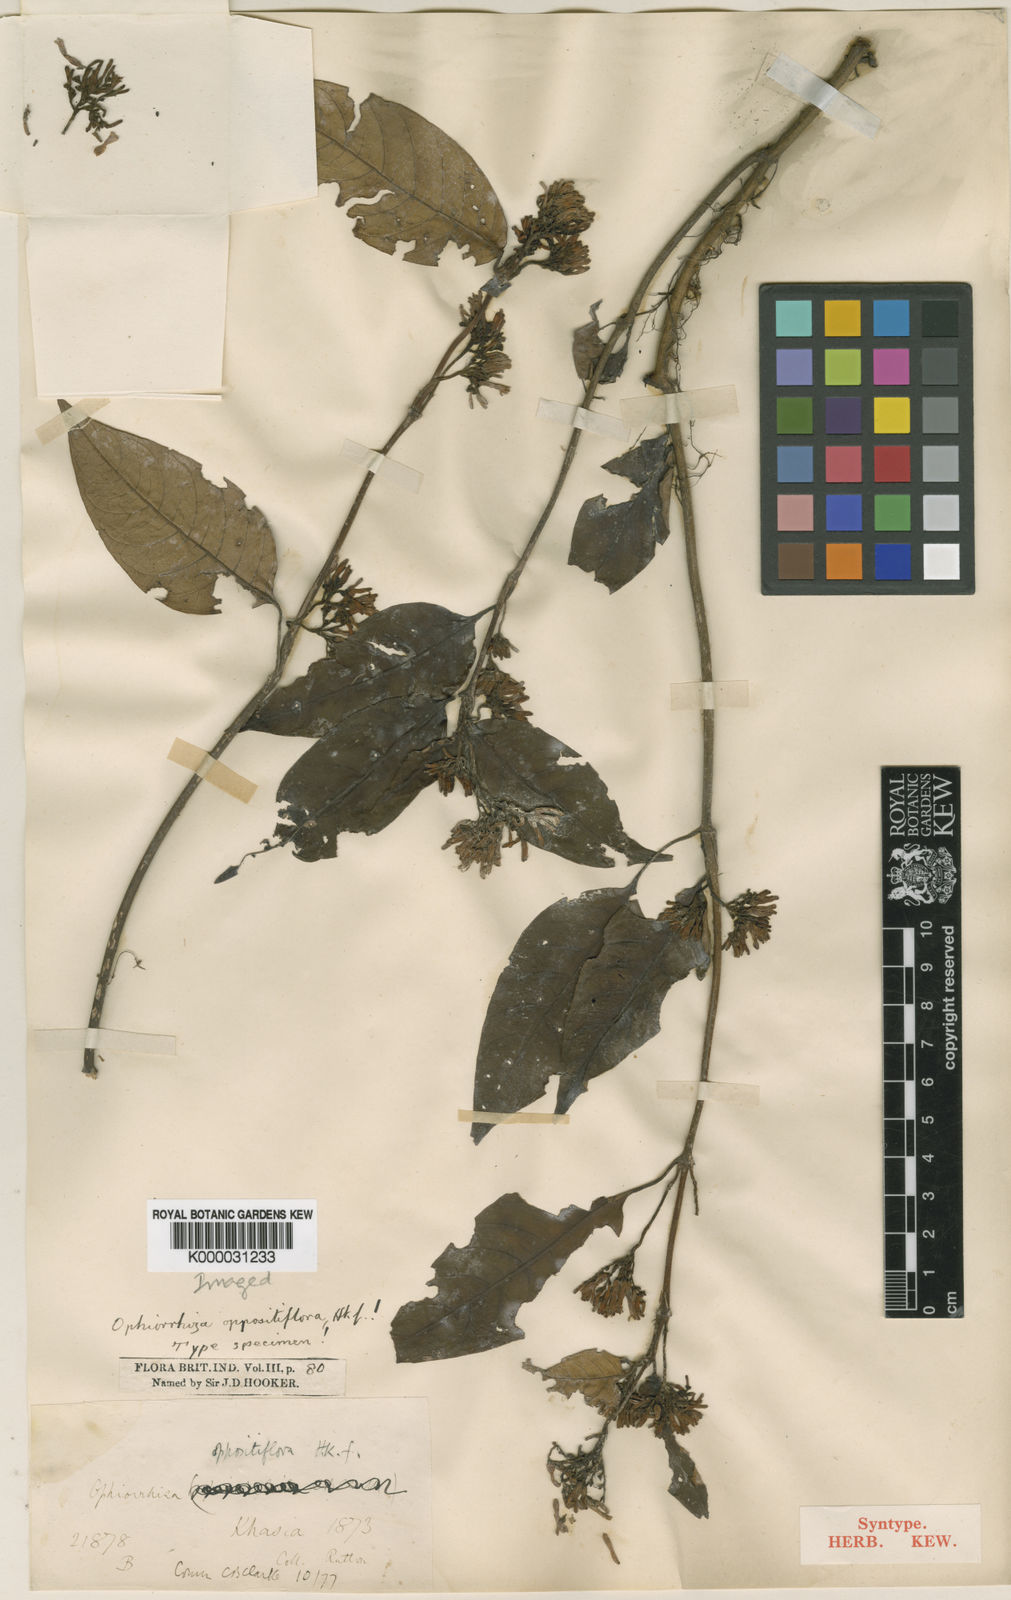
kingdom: Plantae
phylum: Tracheophyta
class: Magnoliopsida
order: Gentianales
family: Rubiaceae
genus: Ophiorrhiza
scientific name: Ophiorrhiza oppositiflora
